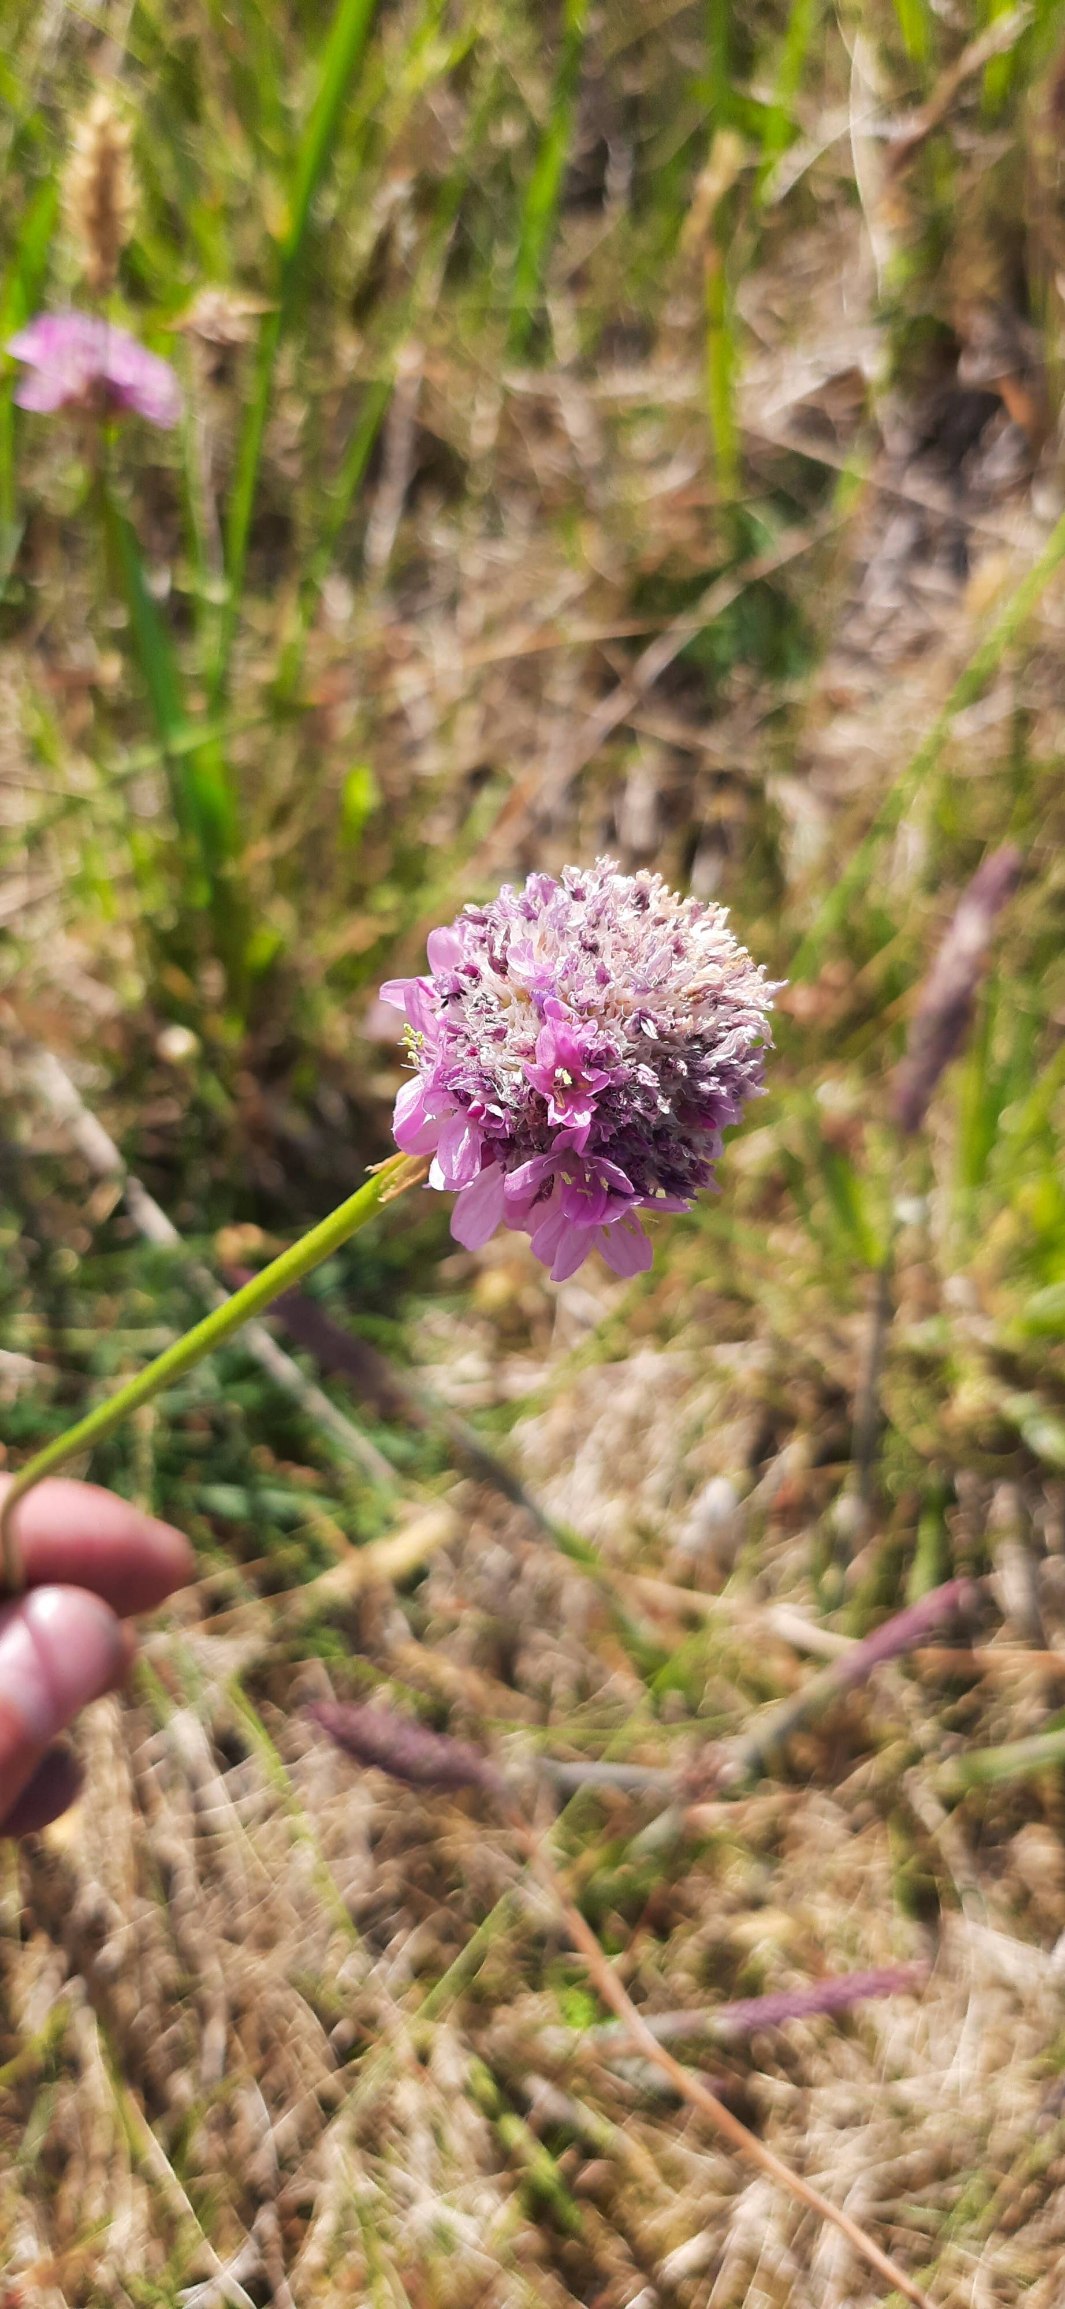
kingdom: Plantae
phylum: Tracheophyta
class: Magnoliopsida
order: Caryophyllales
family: Plumbaginaceae
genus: Armeria
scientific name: Armeria maritima
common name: Engelskgræs
